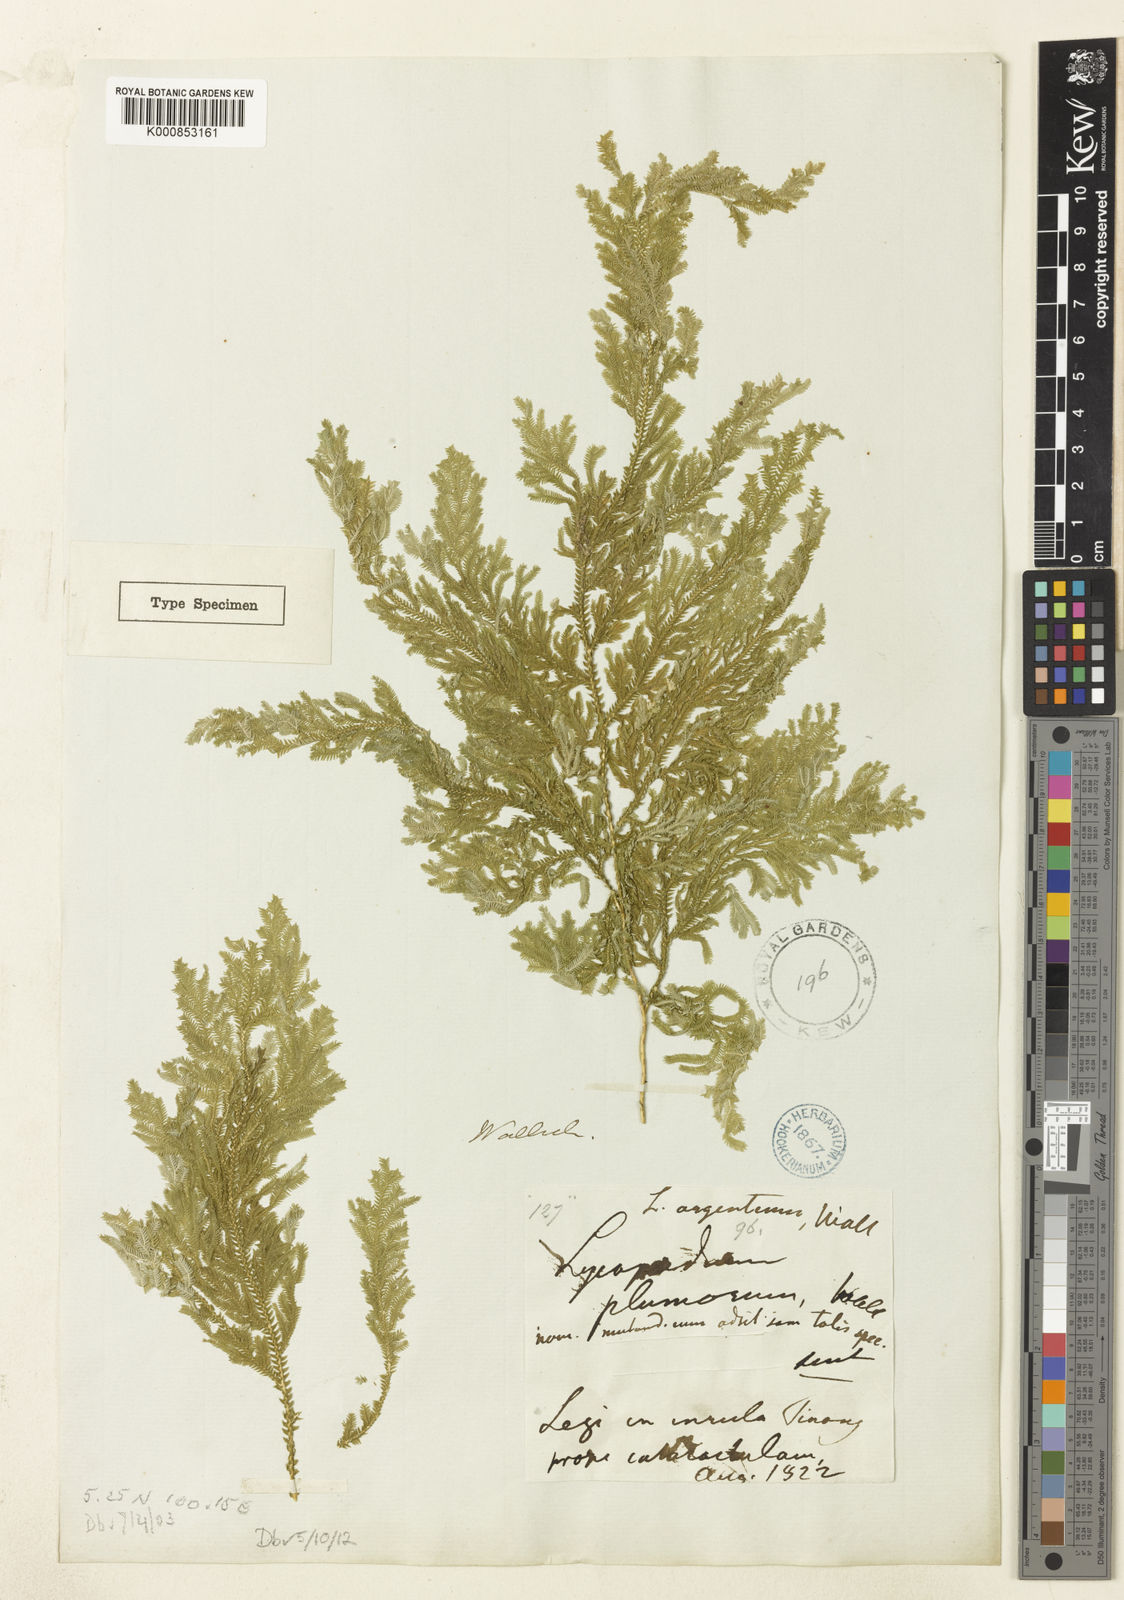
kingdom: Plantae
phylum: Tracheophyta
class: Lycopodiopsida
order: Selaginellales
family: Selaginellaceae
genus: Selaginella
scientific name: Selaginella argentea
